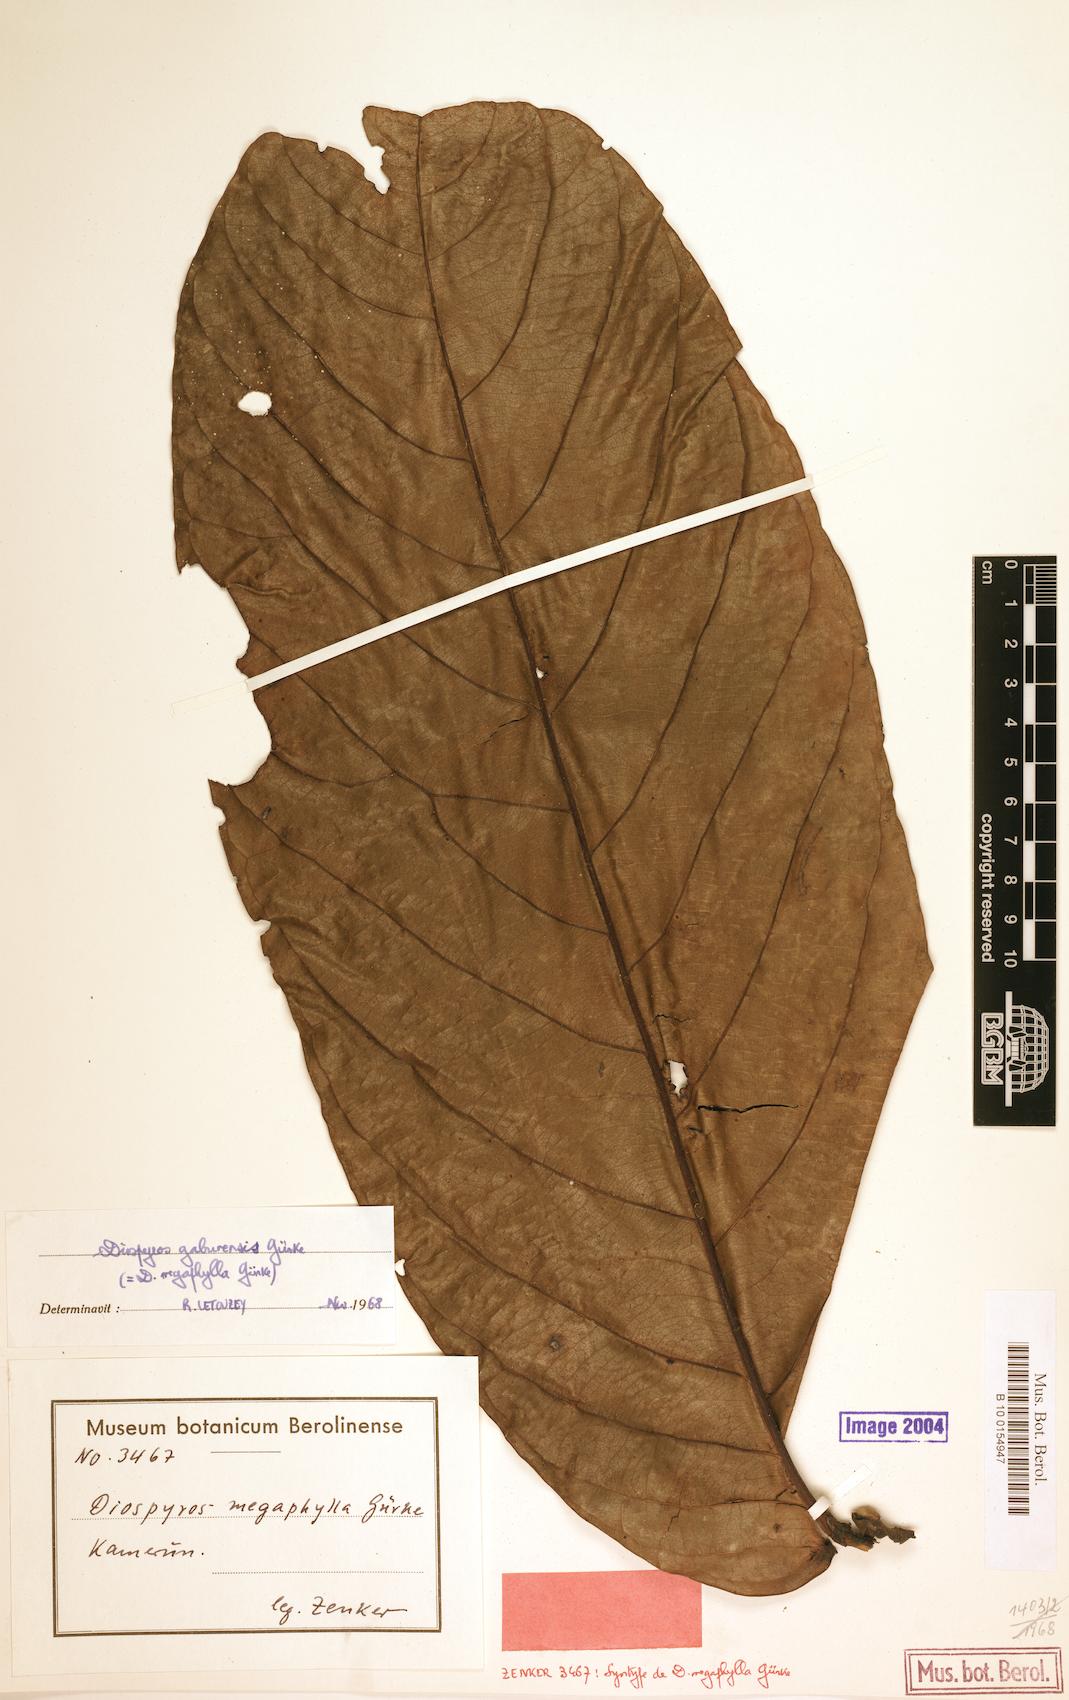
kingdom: Plantae
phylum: Tracheophyta
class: Magnoliopsida
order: Ericales
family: Ebenaceae
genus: Diospyros
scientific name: Diospyros gabunensis
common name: Flint bark tree
